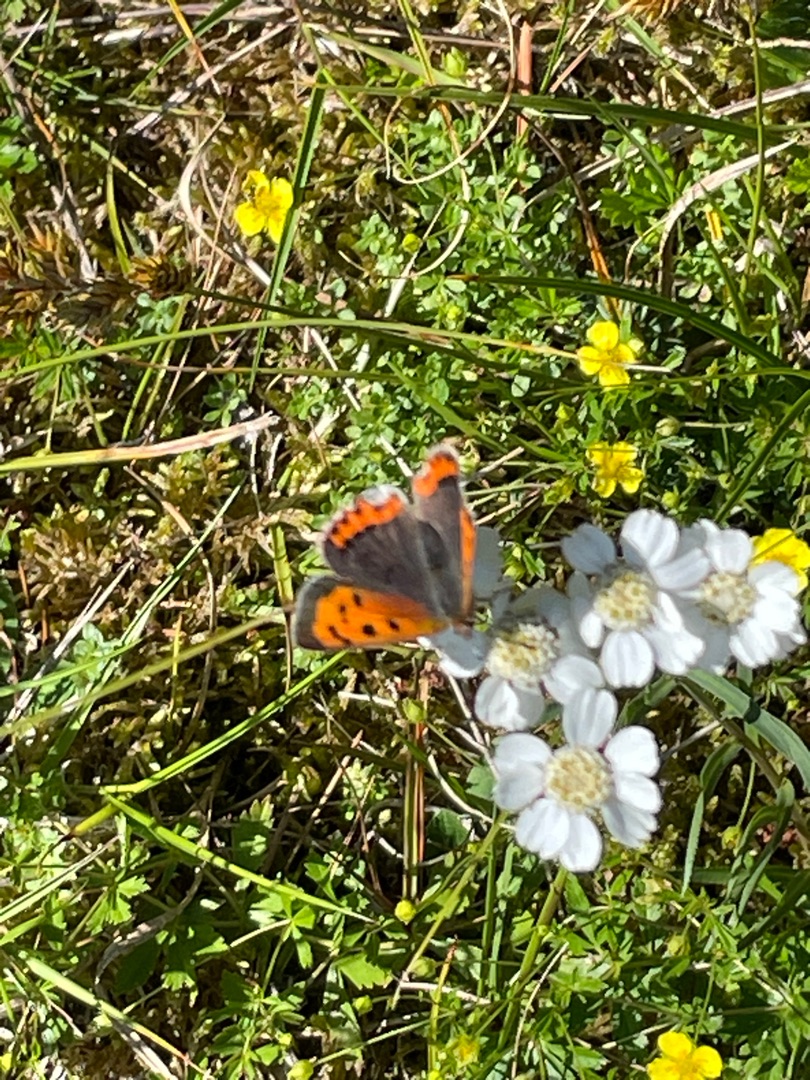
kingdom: Animalia
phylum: Arthropoda
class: Insecta
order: Lepidoptera
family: Lycaenidae
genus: Lycaena
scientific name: Lycaena phlaeas
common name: Lille ildfugl
